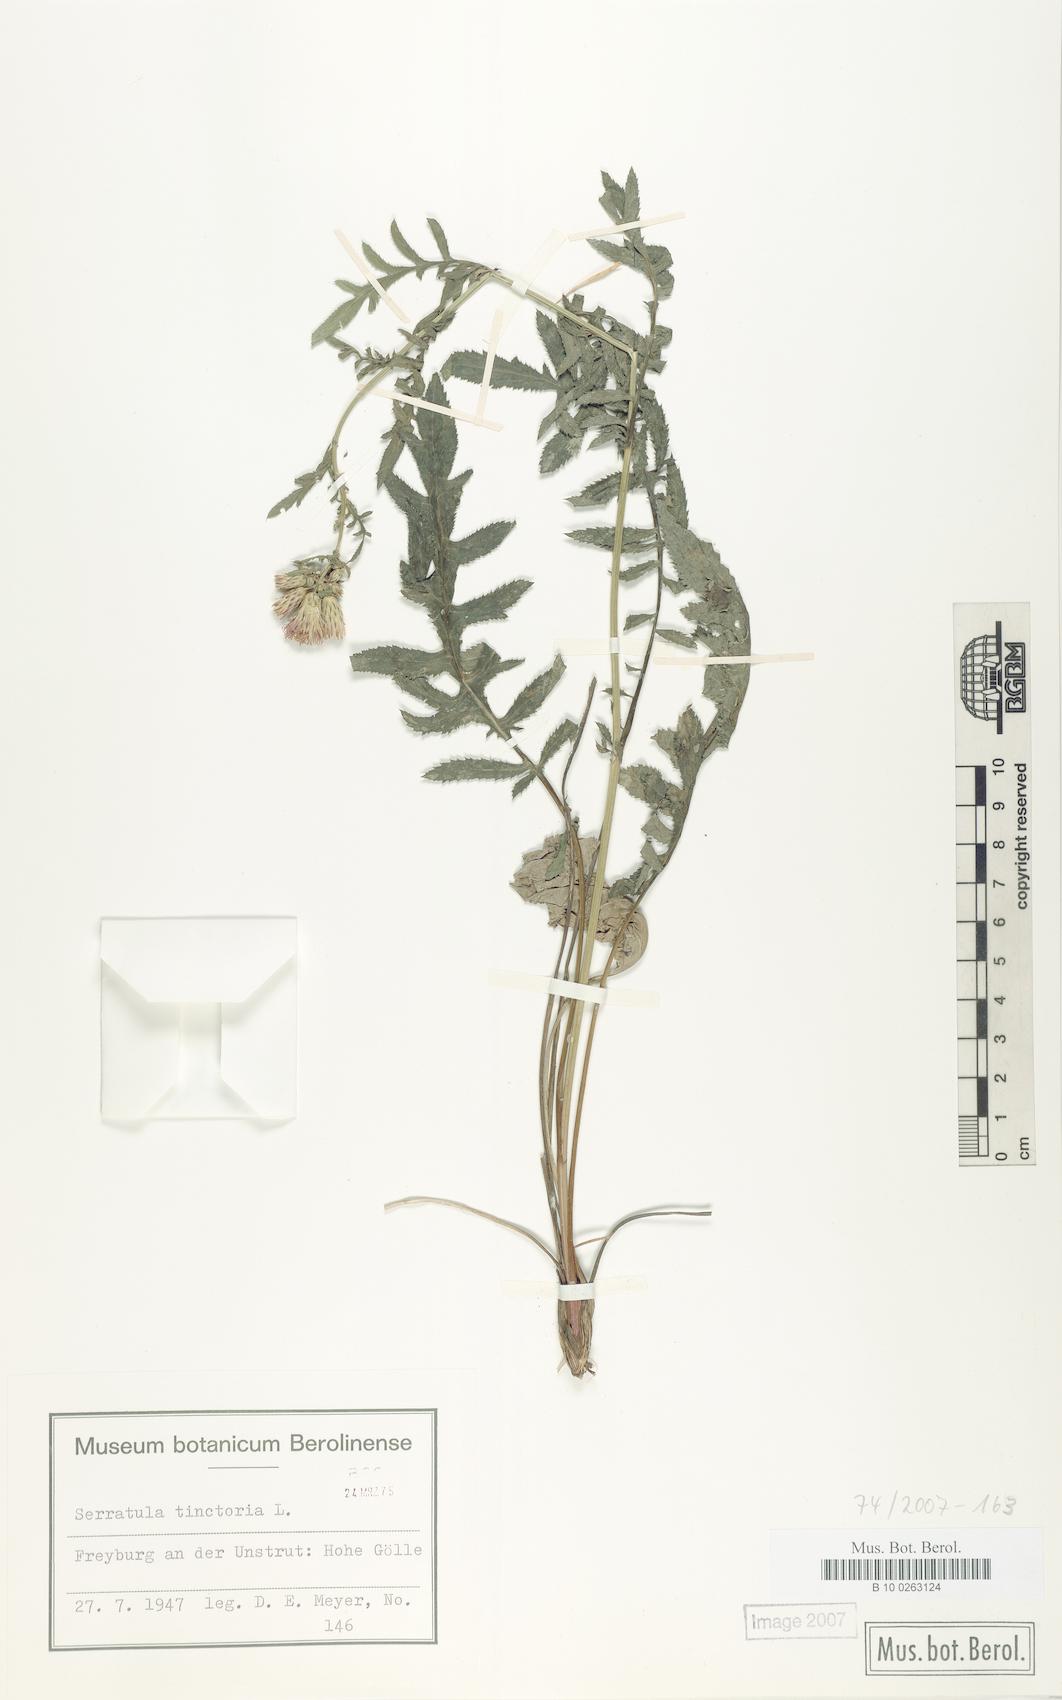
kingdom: Plantae
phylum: Tracheophyta
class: Magnoliopsida
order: Asterales
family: Asteraceae
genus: Serratula
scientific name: Serratula tinctoria
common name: Saw-wort
